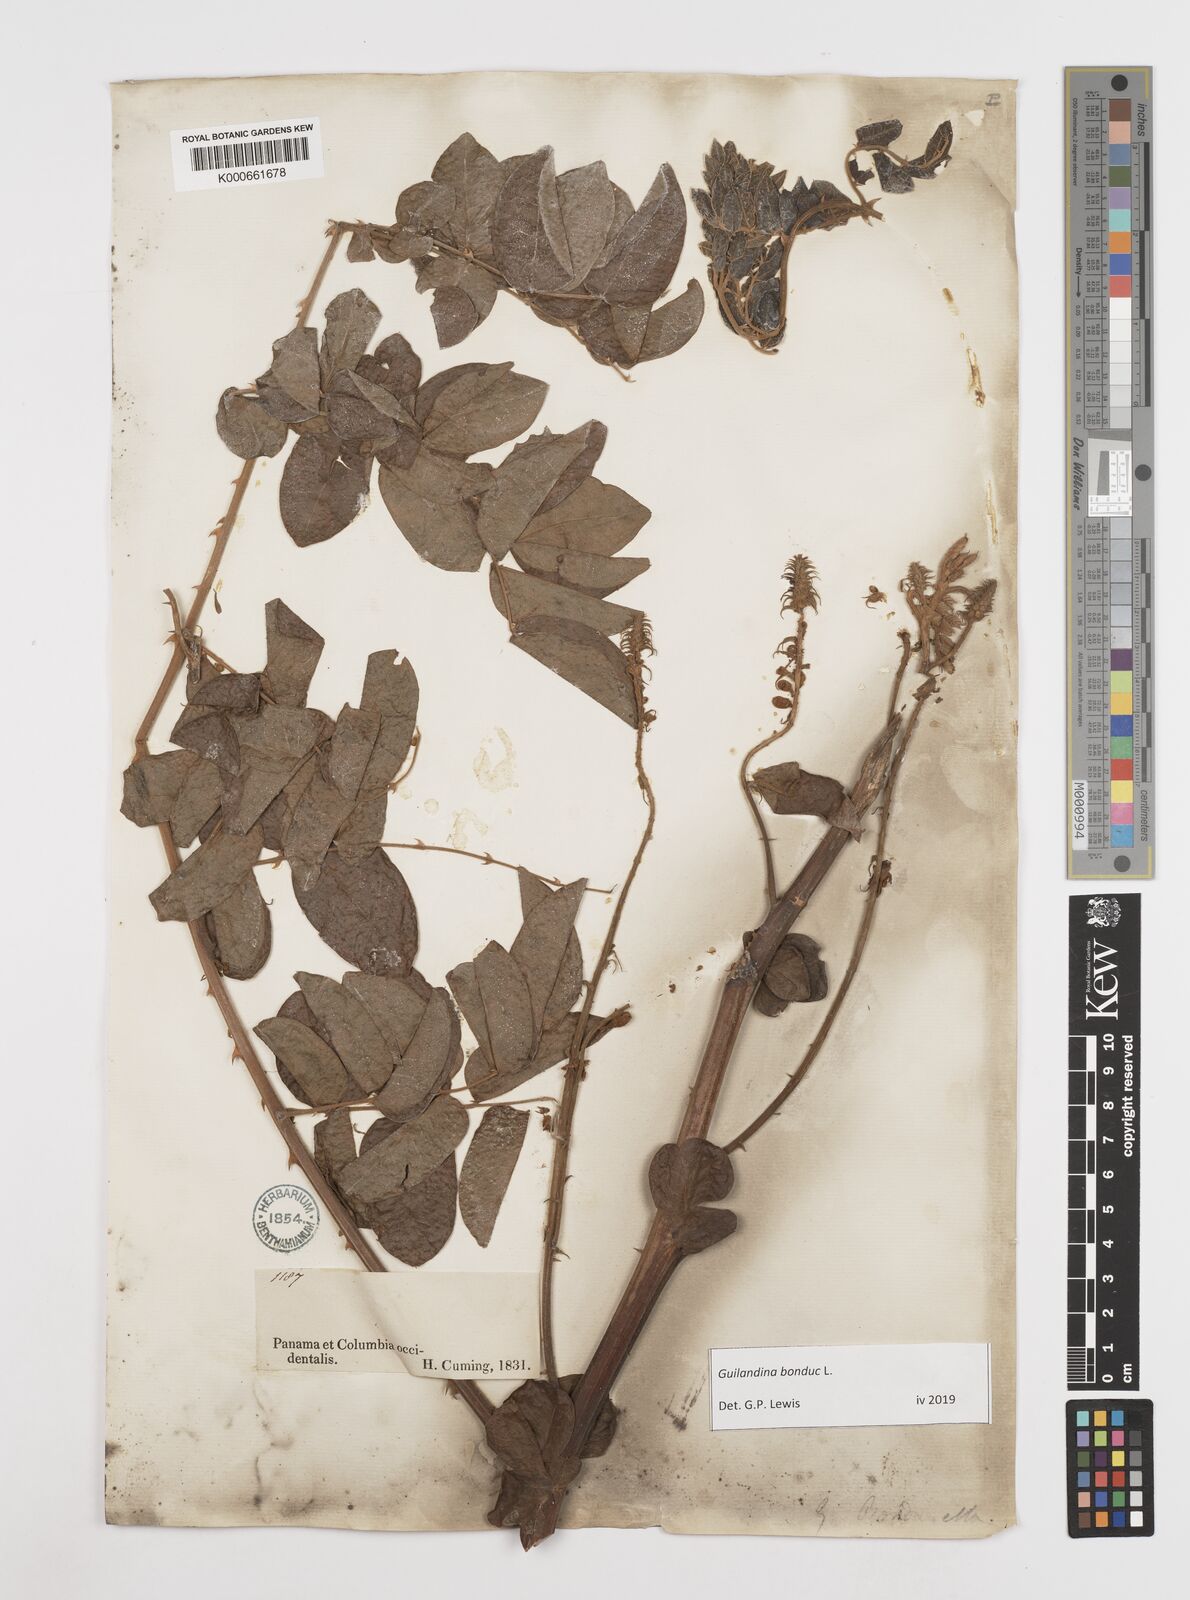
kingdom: Plantae
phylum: Tracheophyta
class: Magnoliopsida
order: Fabales
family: Fabaceae
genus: Guilandina
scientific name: Guilandina bonduc
